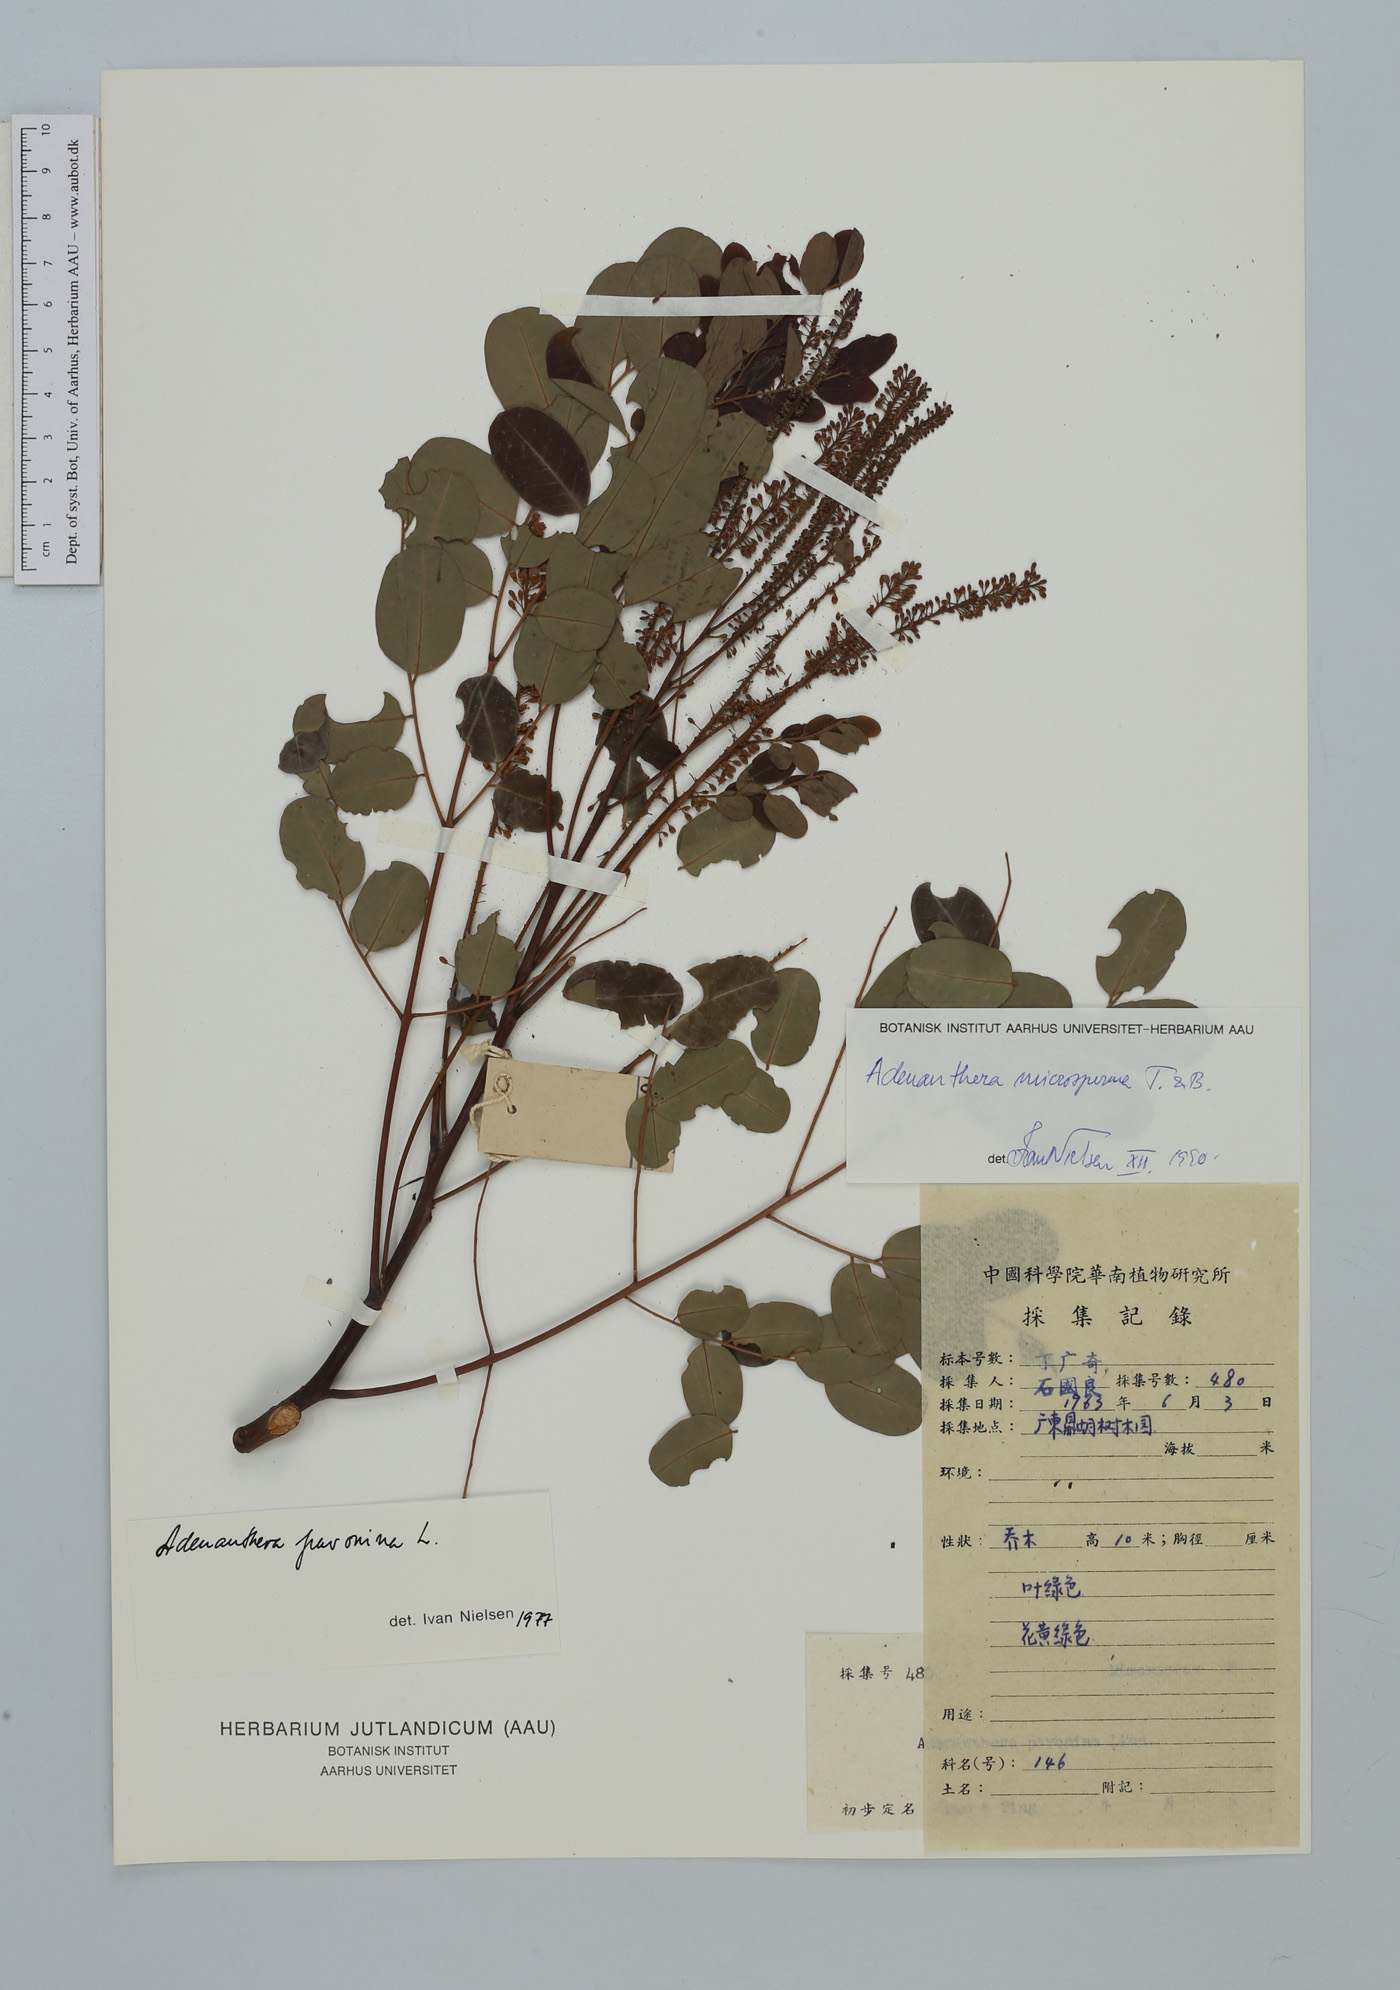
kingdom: Plantae
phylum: Tracheophyta
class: Magnoliopsida
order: Fabales
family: Fabaceae
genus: Adenanthera
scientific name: Adenanthera microsperma
